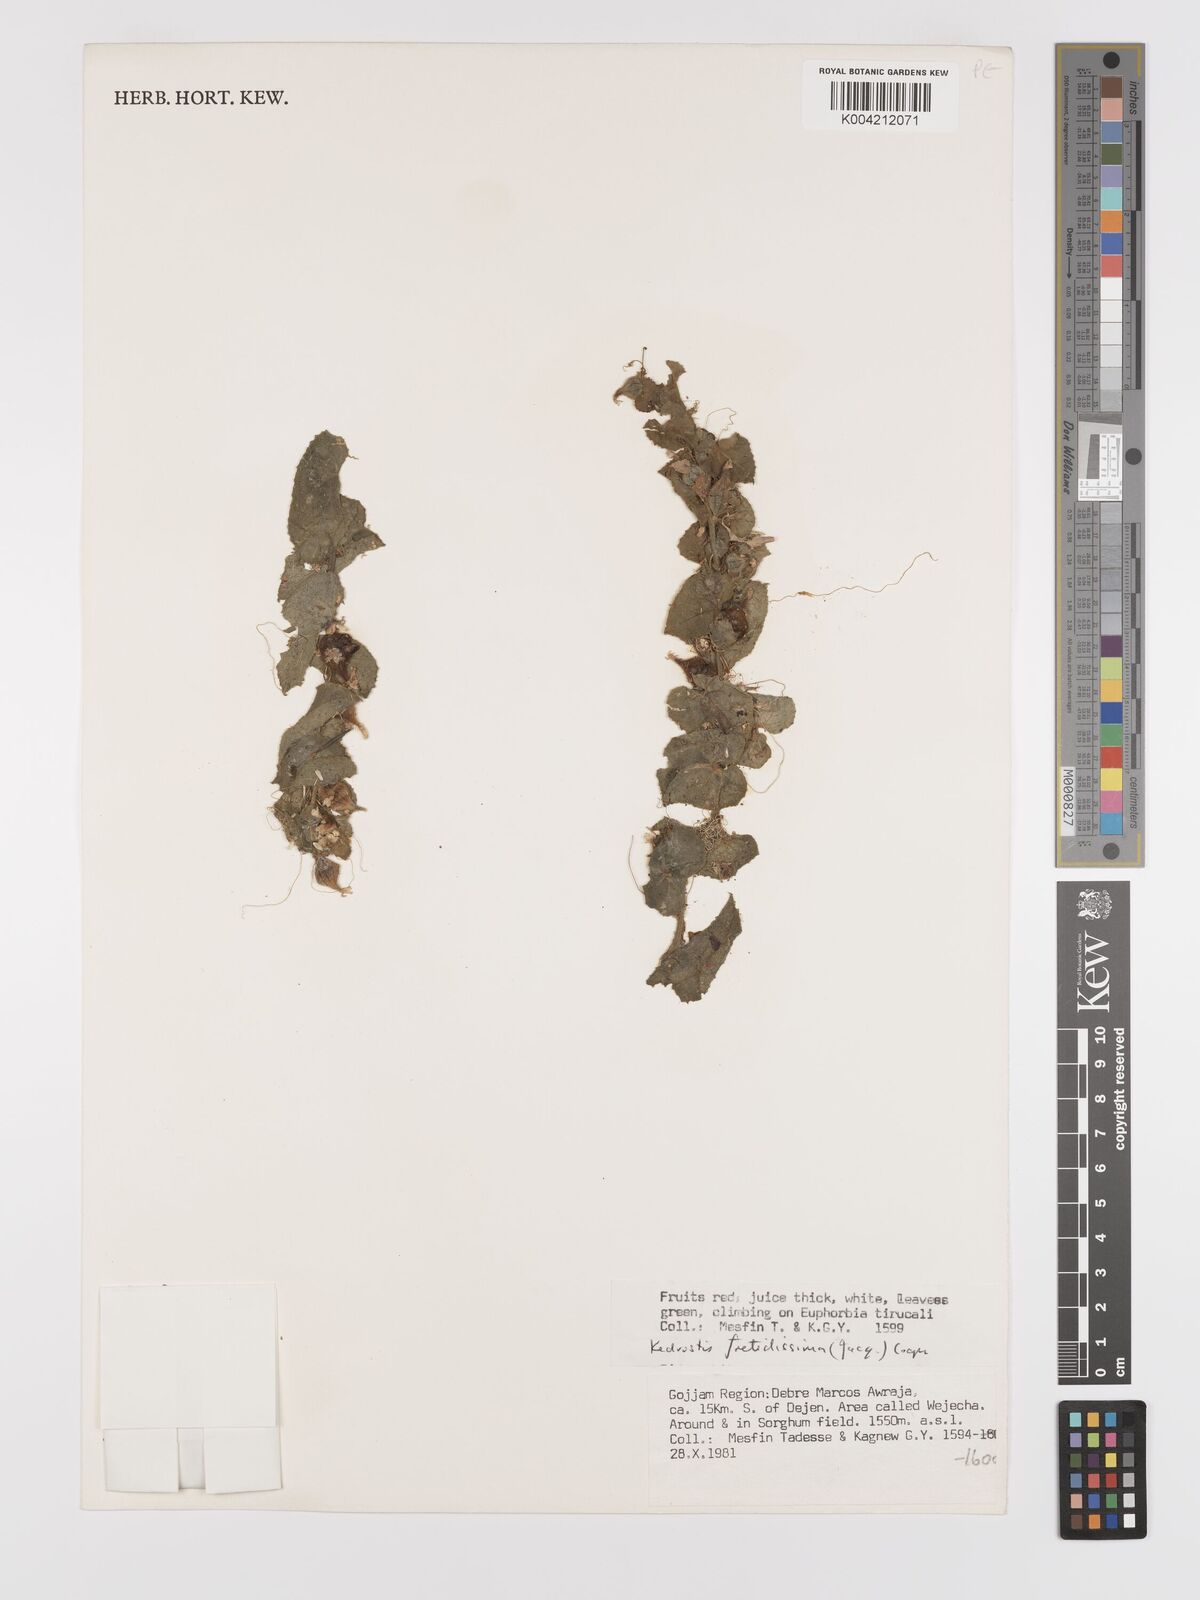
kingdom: Plantae
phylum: Tracheophyta
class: Magnoliopsida
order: Cucurbitales
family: Cucurbitaceae
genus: Kedrostis
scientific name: Kedrostis foetidissima
